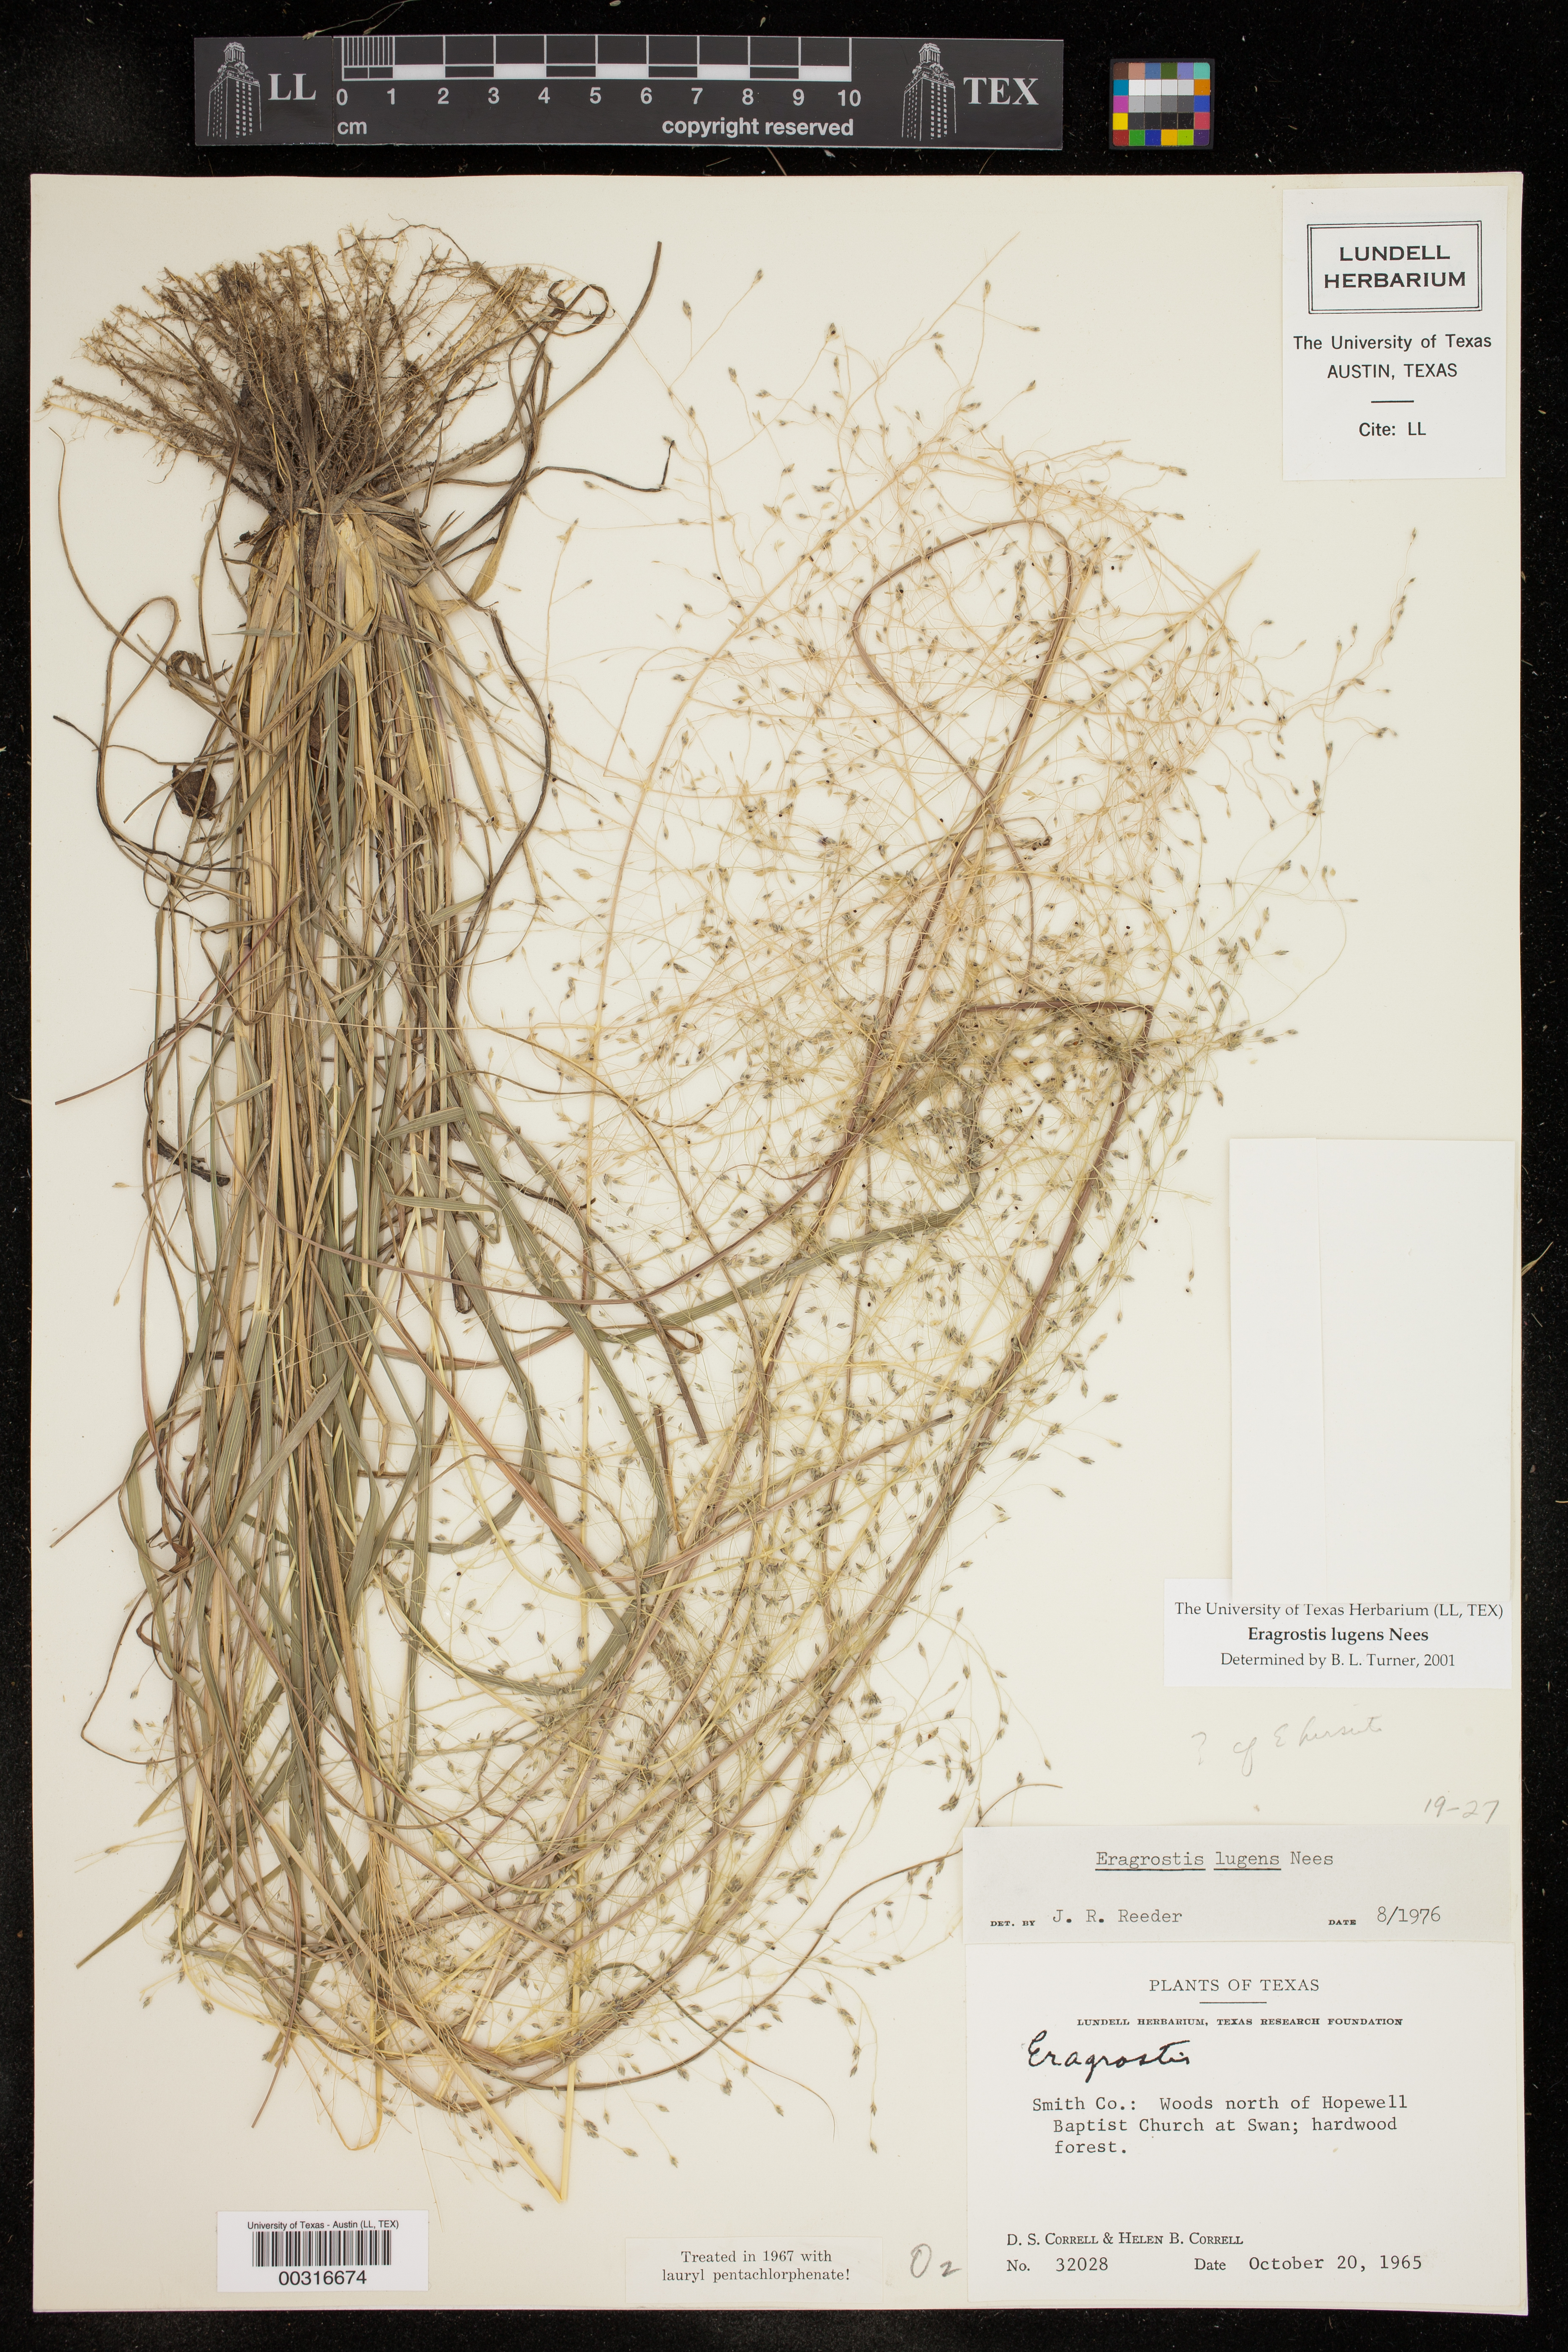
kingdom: Plantae
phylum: Tracheophyta
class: Liliopsida
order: Poales
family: Poaceae
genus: Eragrostis
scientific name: Eragrostis lugens
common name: Mourning love grass
